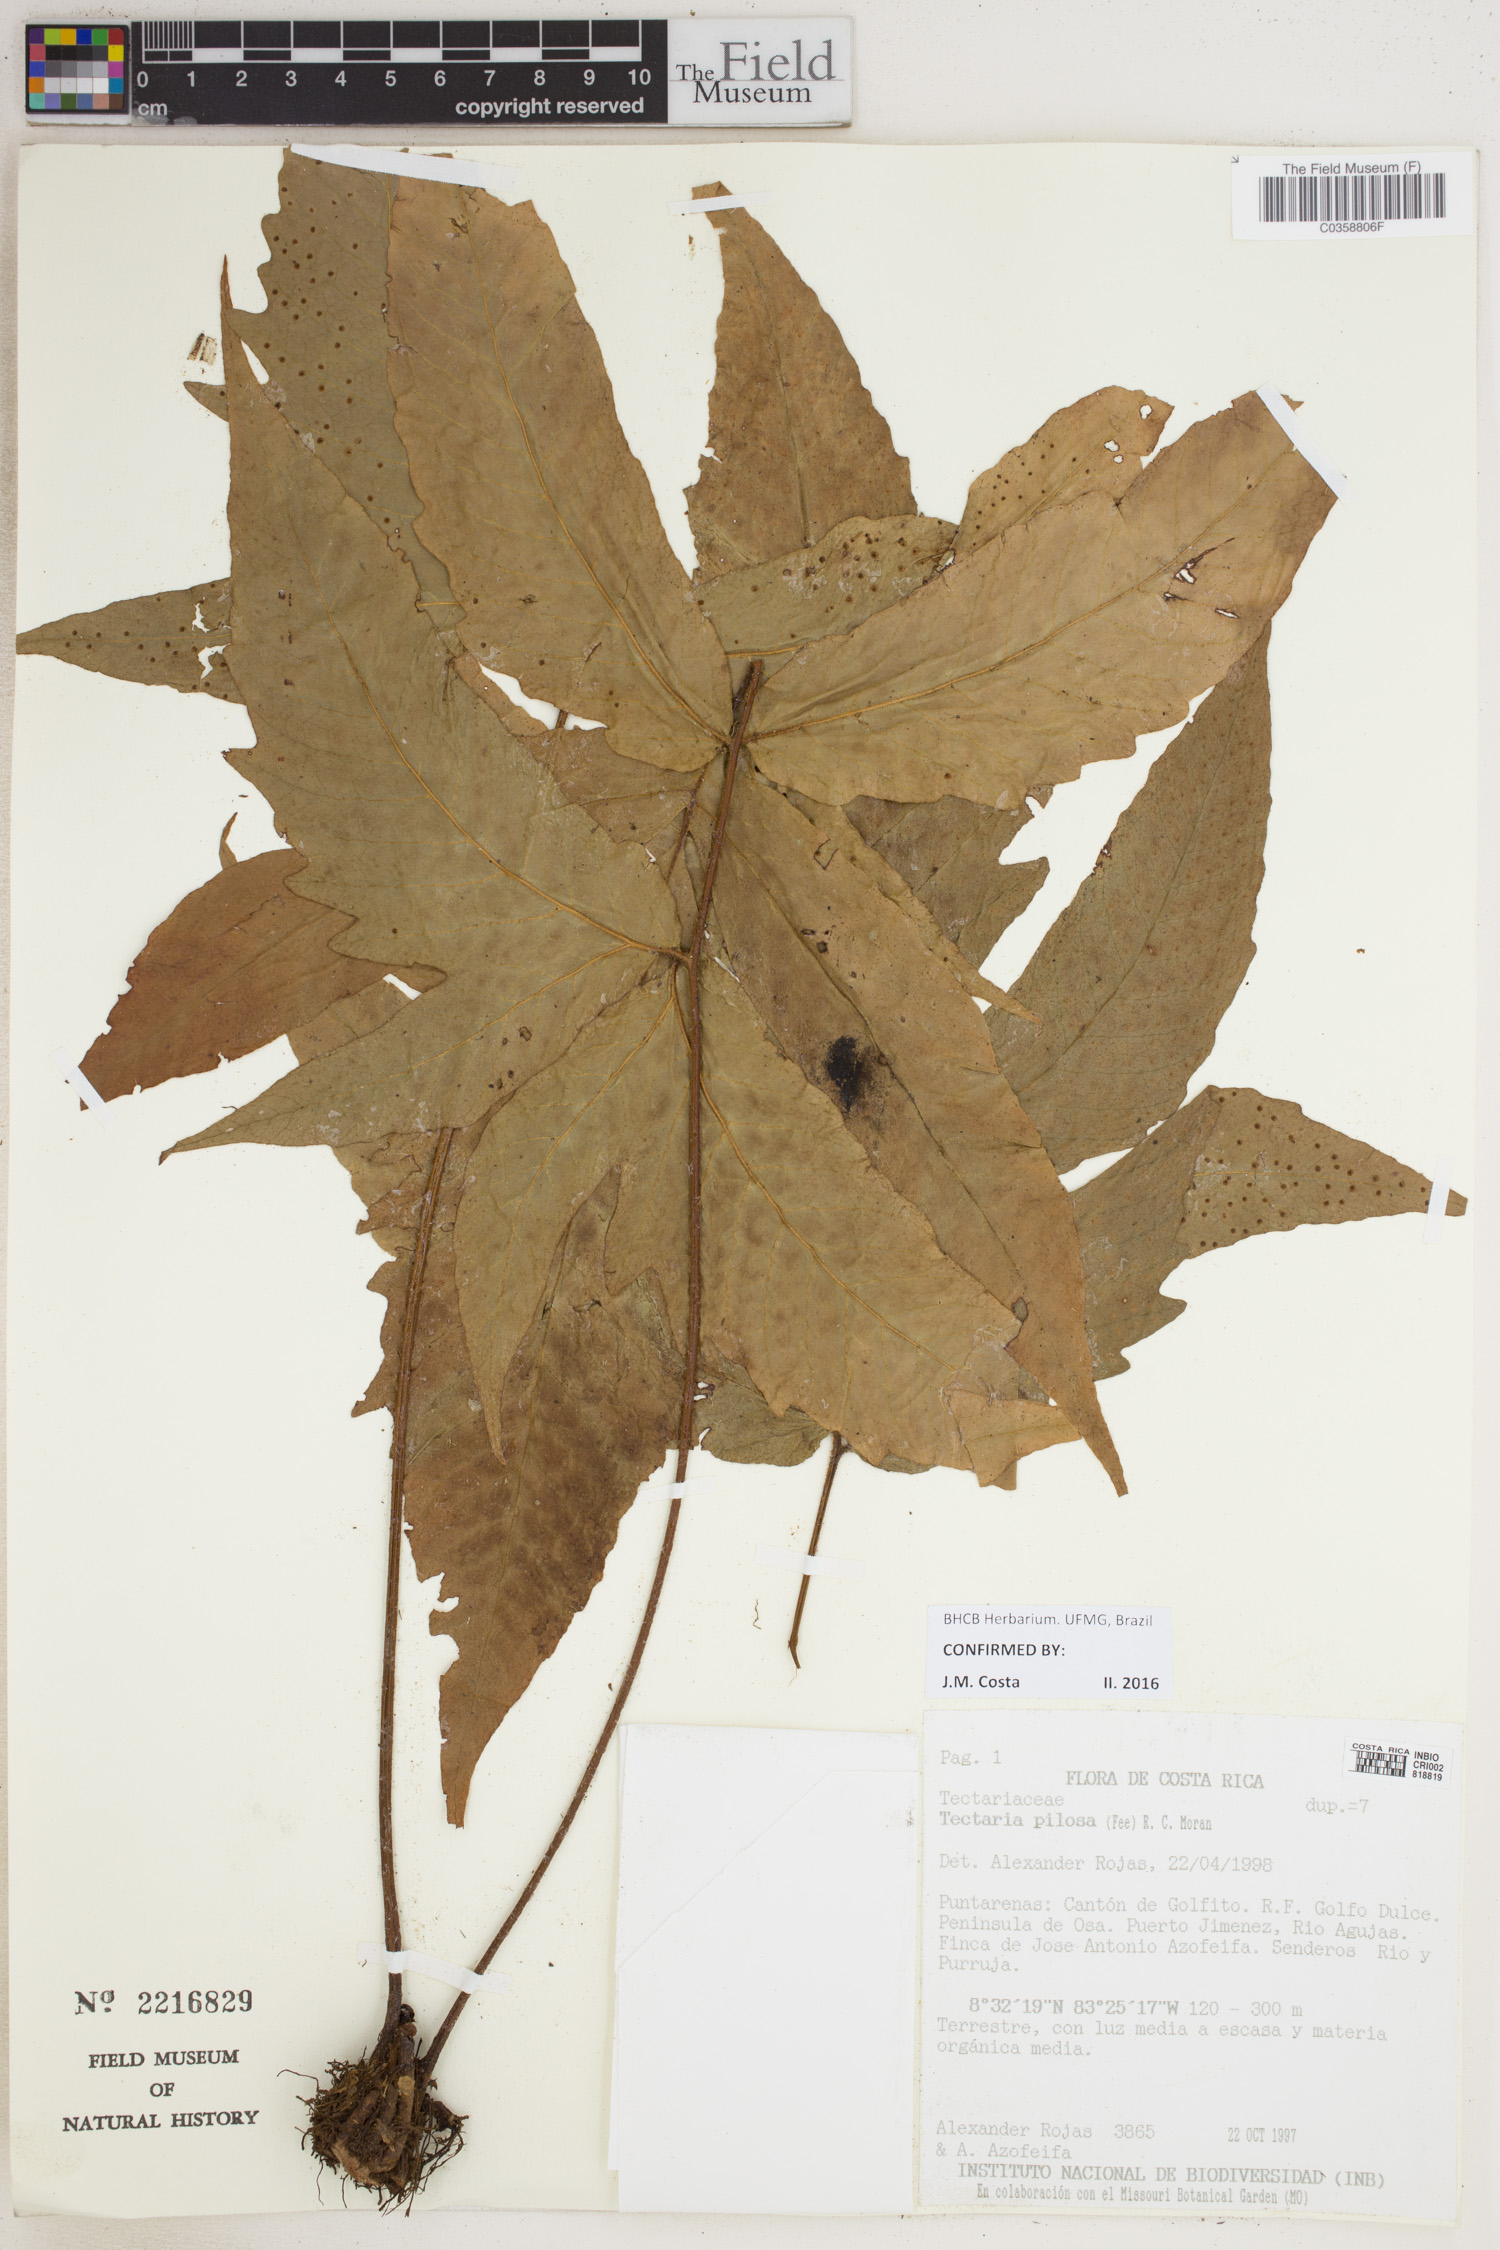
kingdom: Plantae
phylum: Tracheophyta
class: Polypodiopsida
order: Polypodiales
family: Tectariaceae
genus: Tectaria
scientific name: Tectaria pilosa
